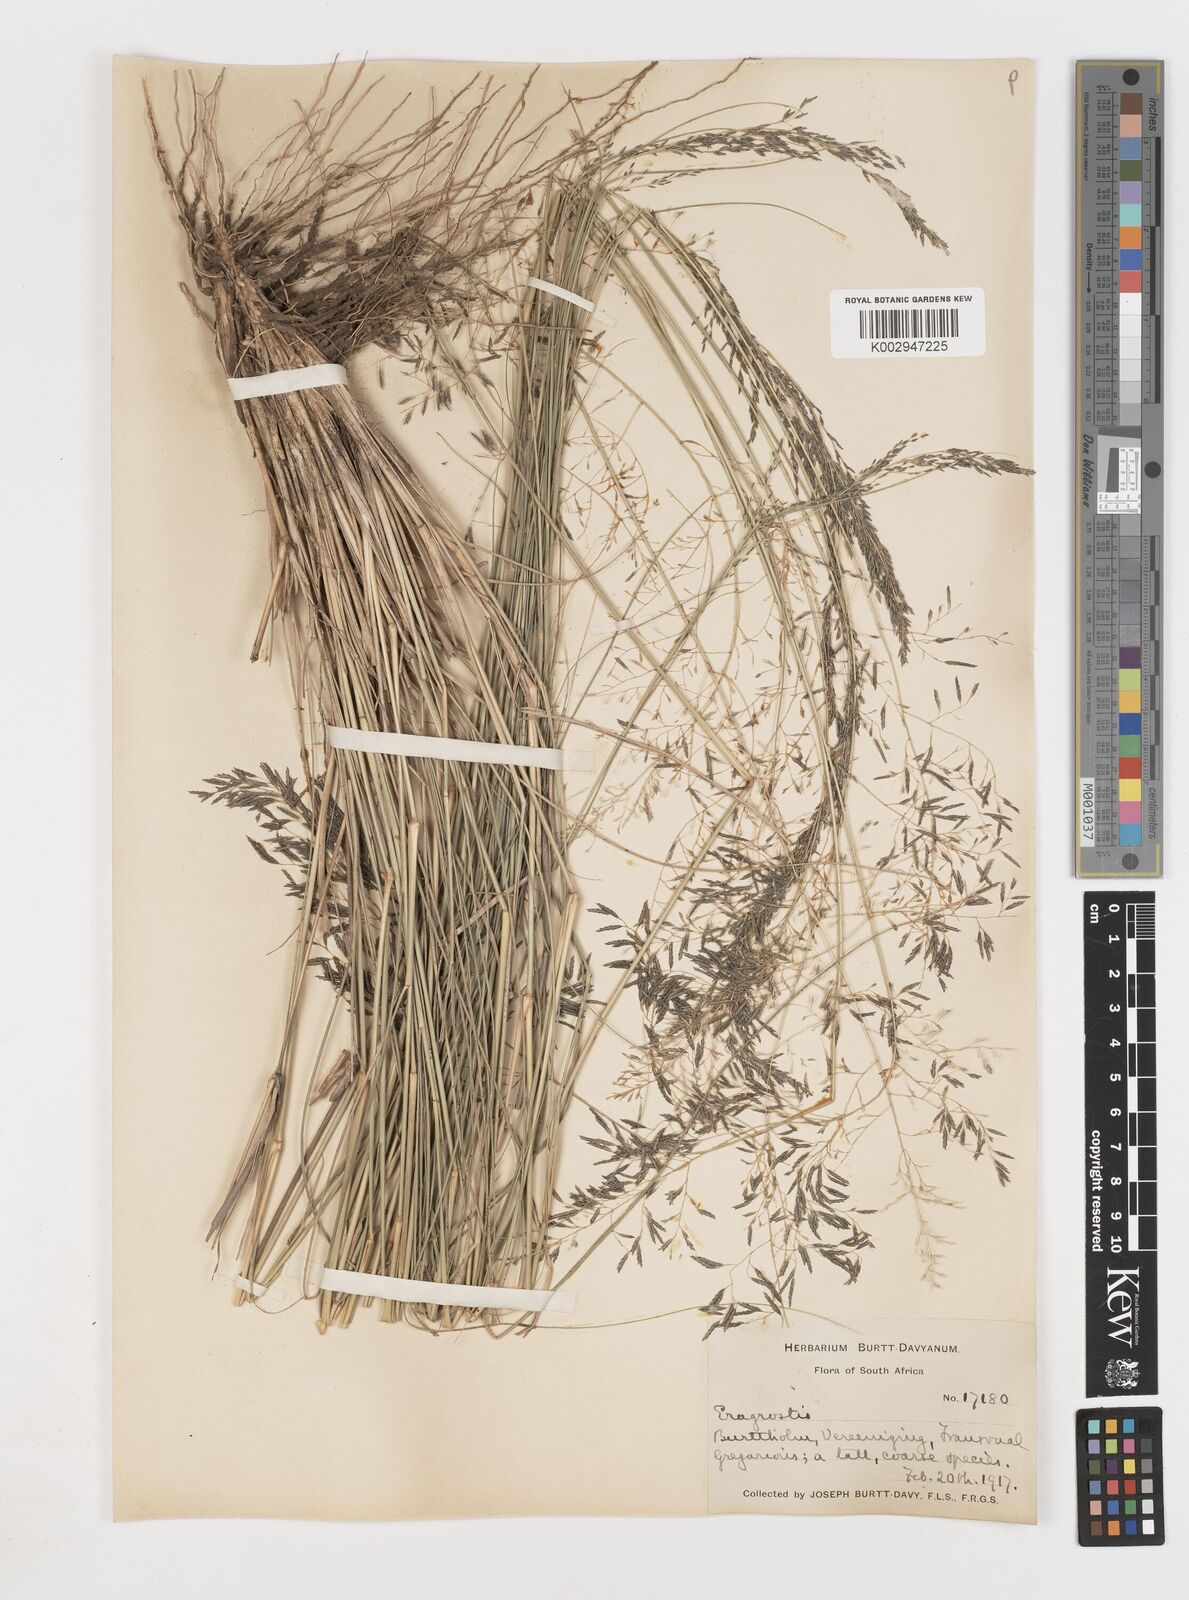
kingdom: Plantae
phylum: Tracheophyta
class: Liliopsida
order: Poales
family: Poaceae
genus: Eragrostis
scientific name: Eragrostis
